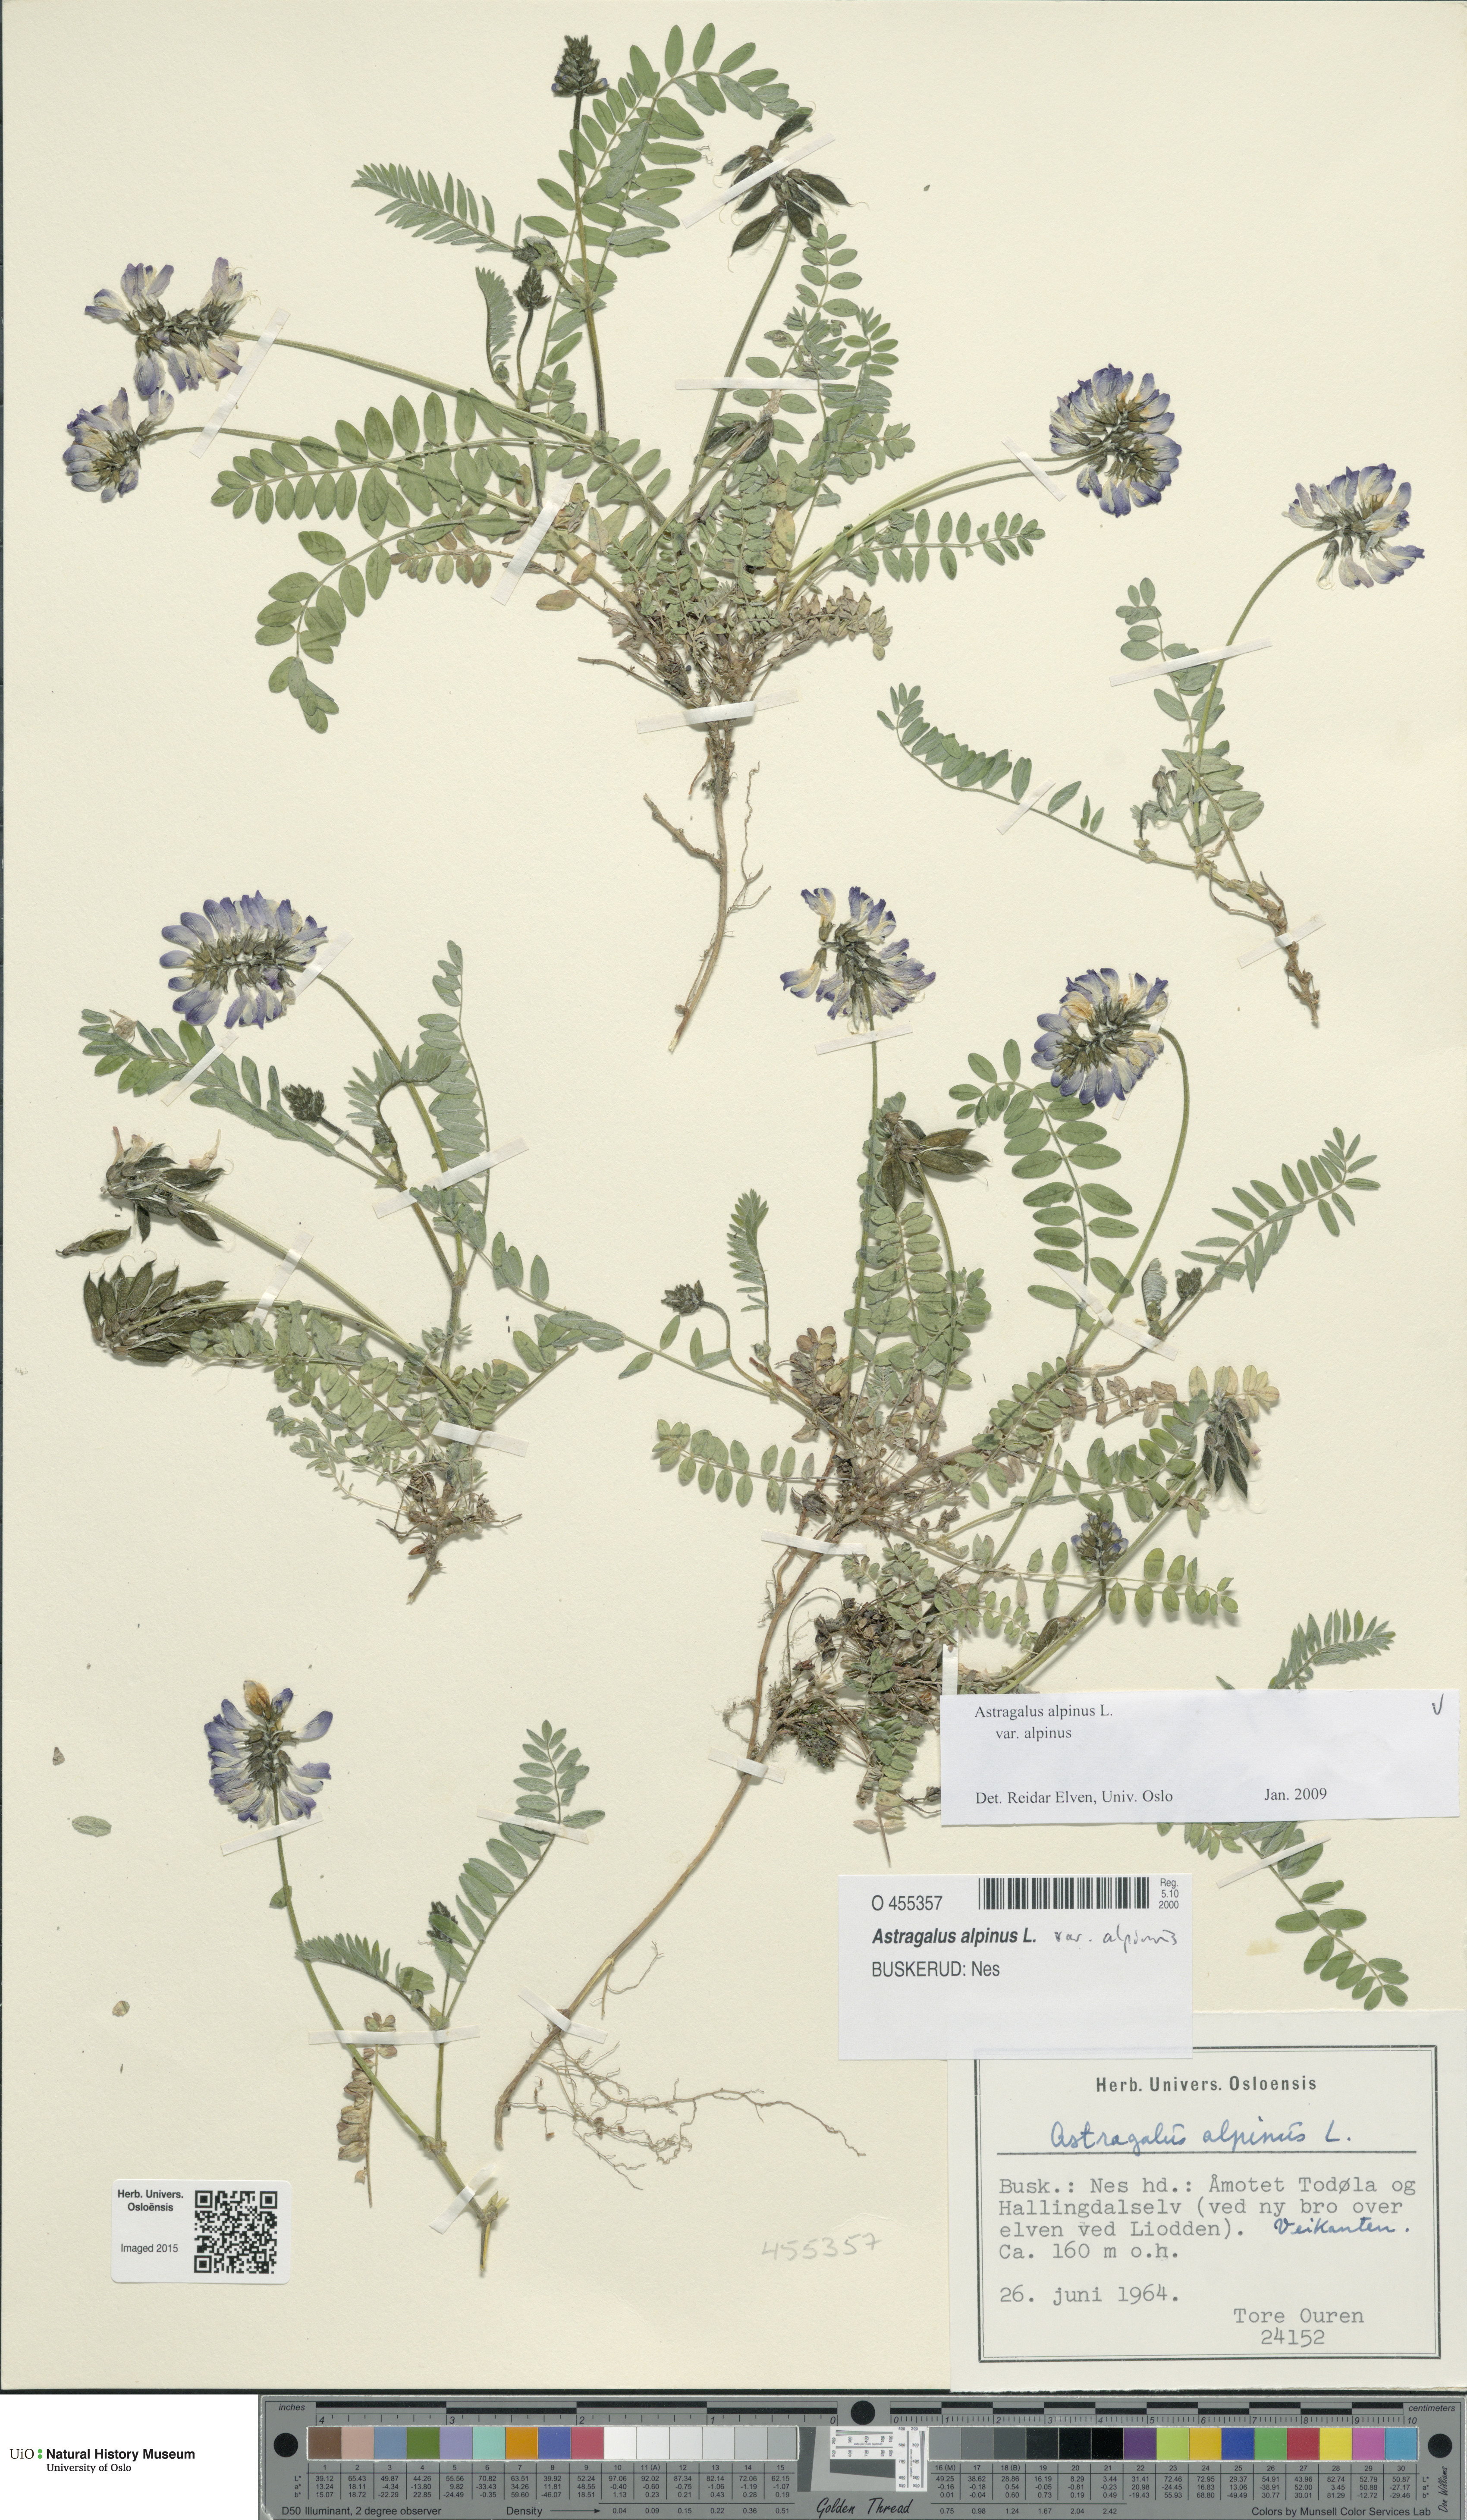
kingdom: Plantae
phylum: Tracheophyta
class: Magnoliopsida
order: Fabales
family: Fabaceae
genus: Astragalus
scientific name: Astragalus alpinus
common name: Alpine milk-vetch
